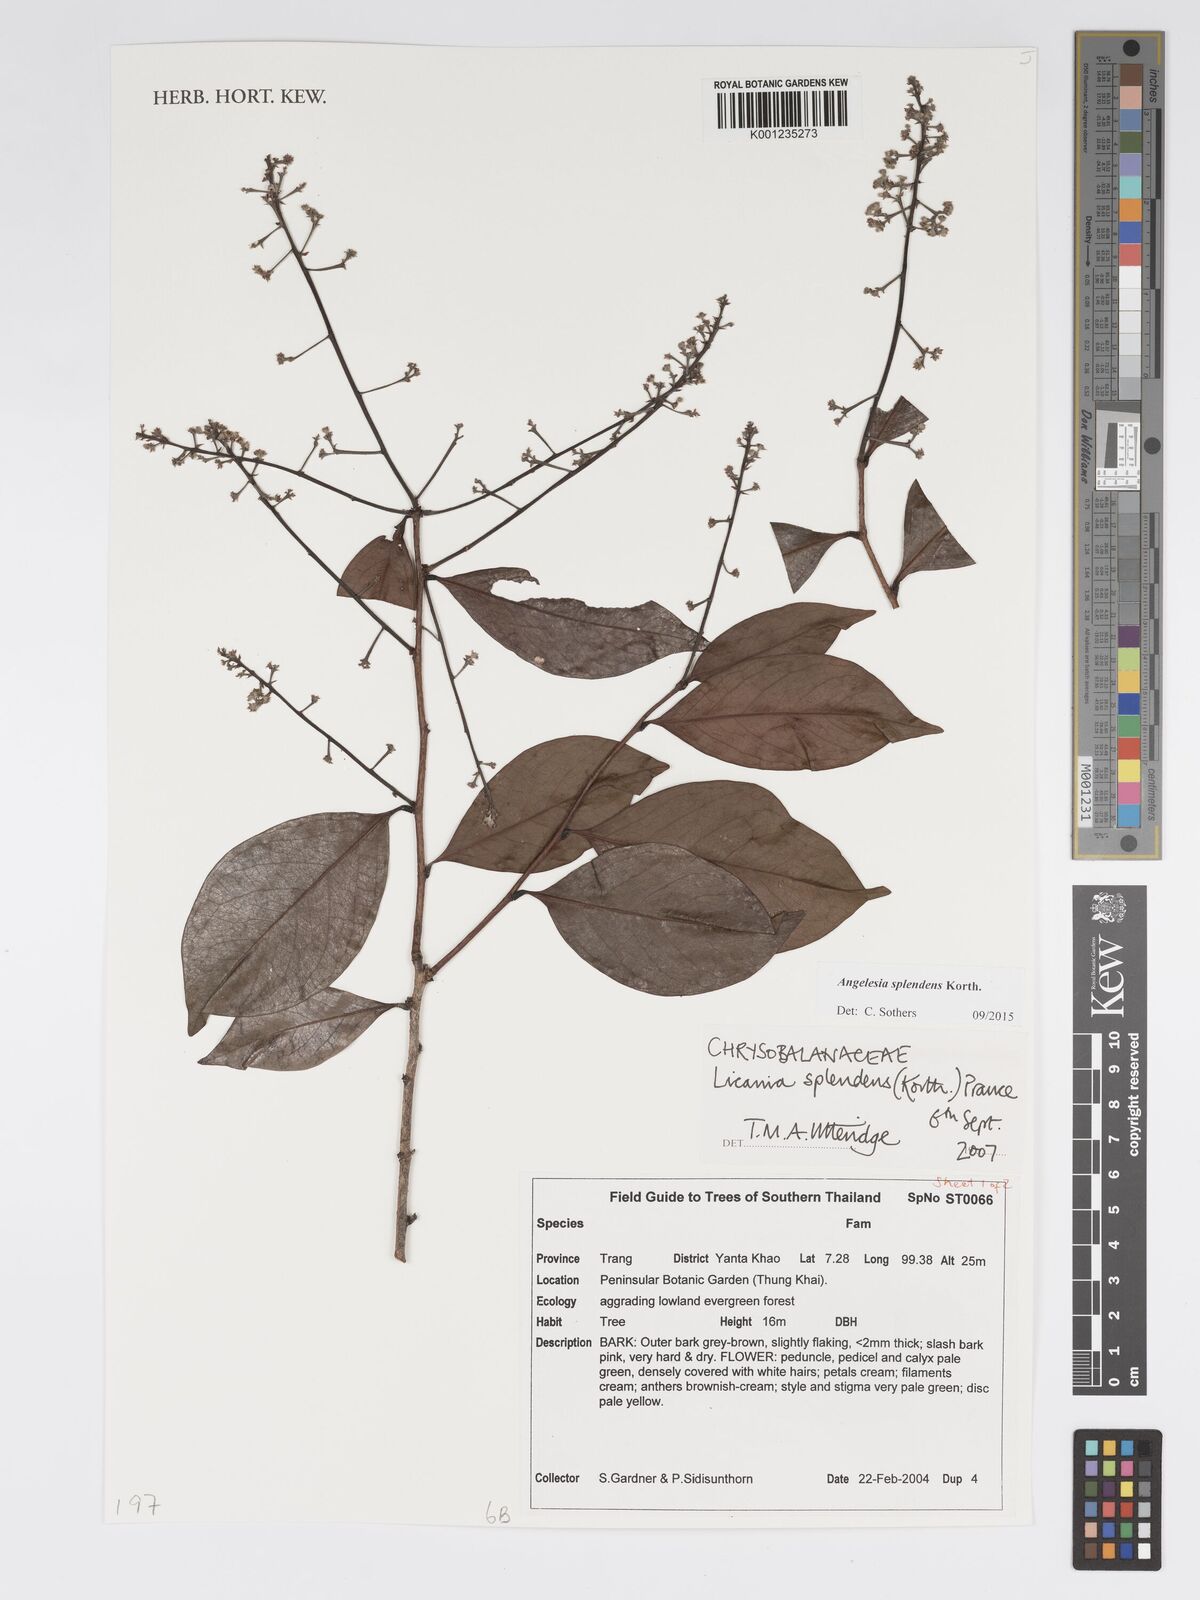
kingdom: Plantae
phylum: Tracheophyta
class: Magnoliopsida
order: Malpighiales
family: Chrysobalanaceae
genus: Angelesia
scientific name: Angelesia splendens
